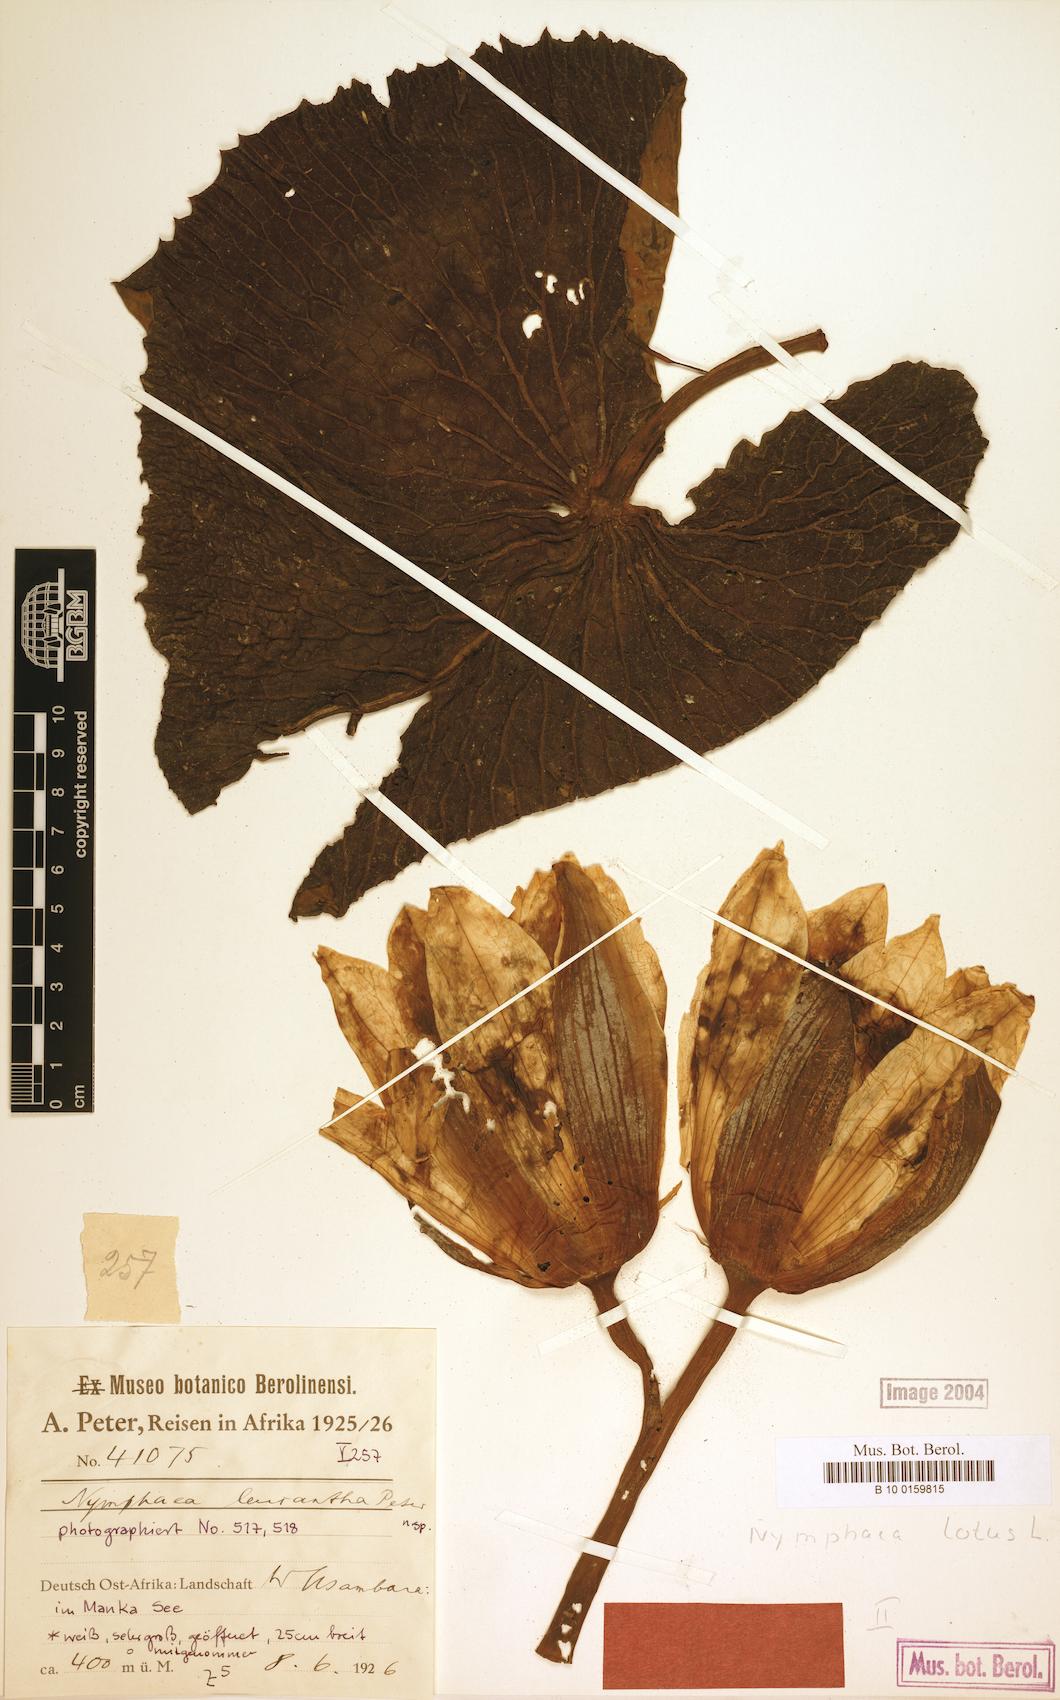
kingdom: Plantae
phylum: Tracheophyta
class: Magnoliopsida
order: Nymphaeales
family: Nymphaeaceae
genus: Nymphaea
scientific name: Nymphaea lotus
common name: White egyptian lotus
